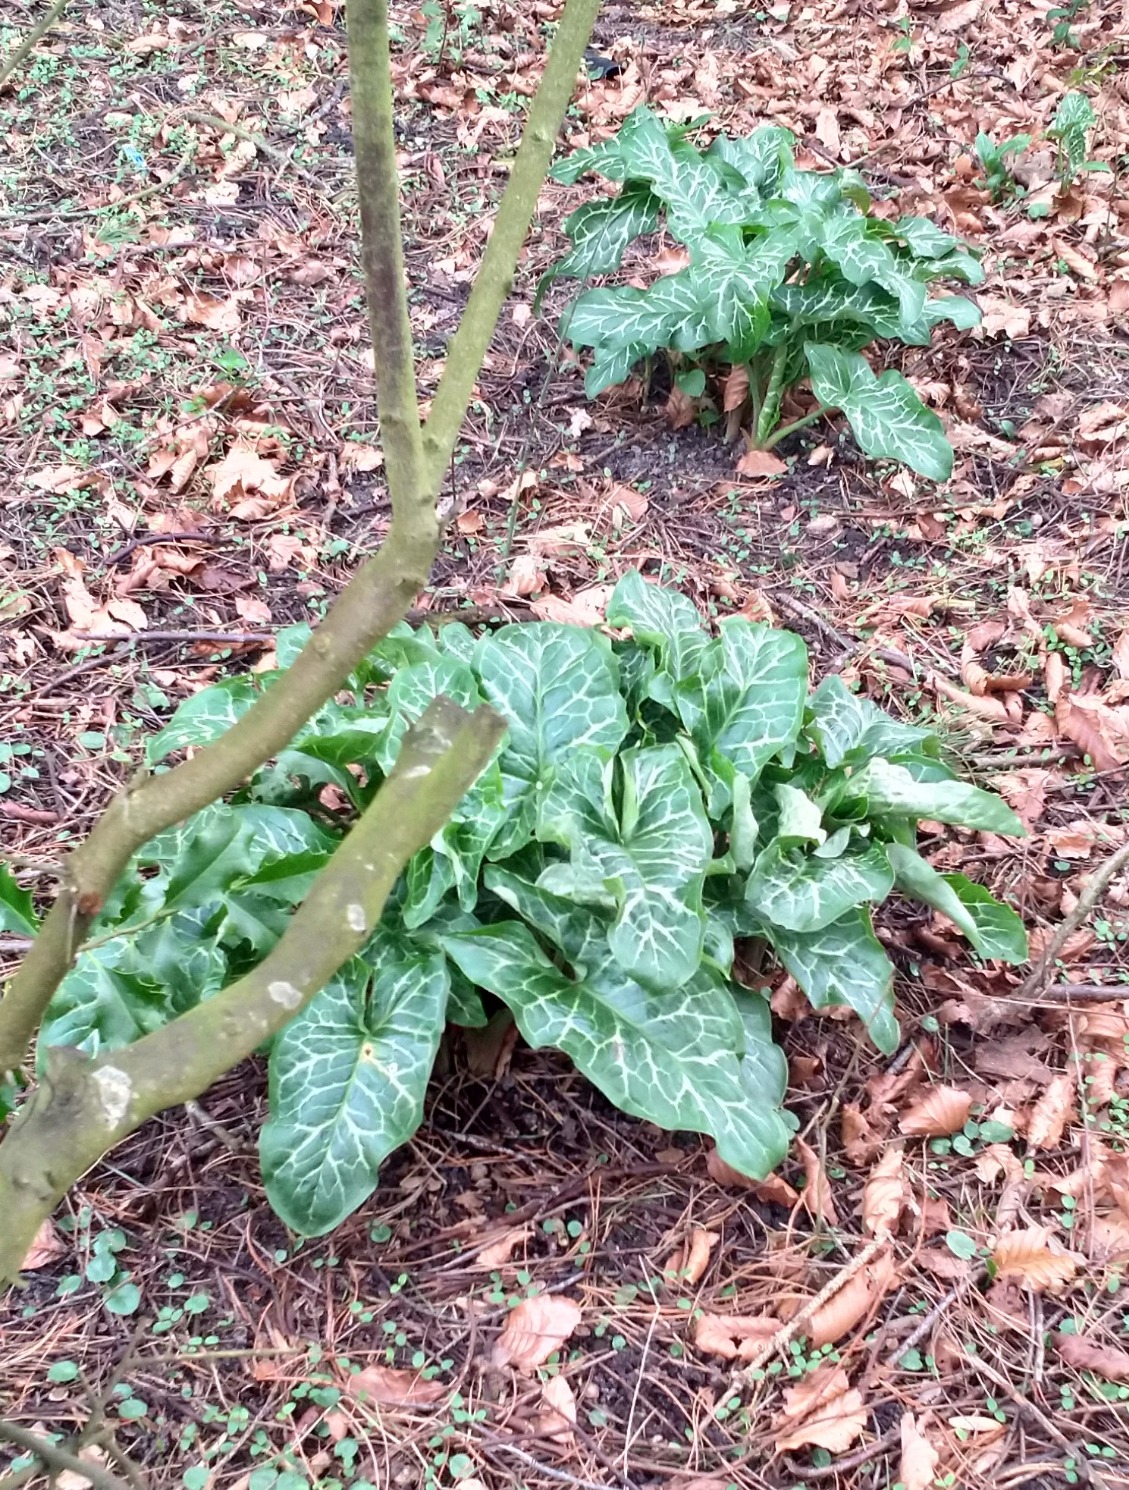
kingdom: Plantae
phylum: Tracheophyta
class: Liliopsida
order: Alismatales
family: Araceae
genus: Arum
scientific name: Arum italicum
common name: Italiensk arum
